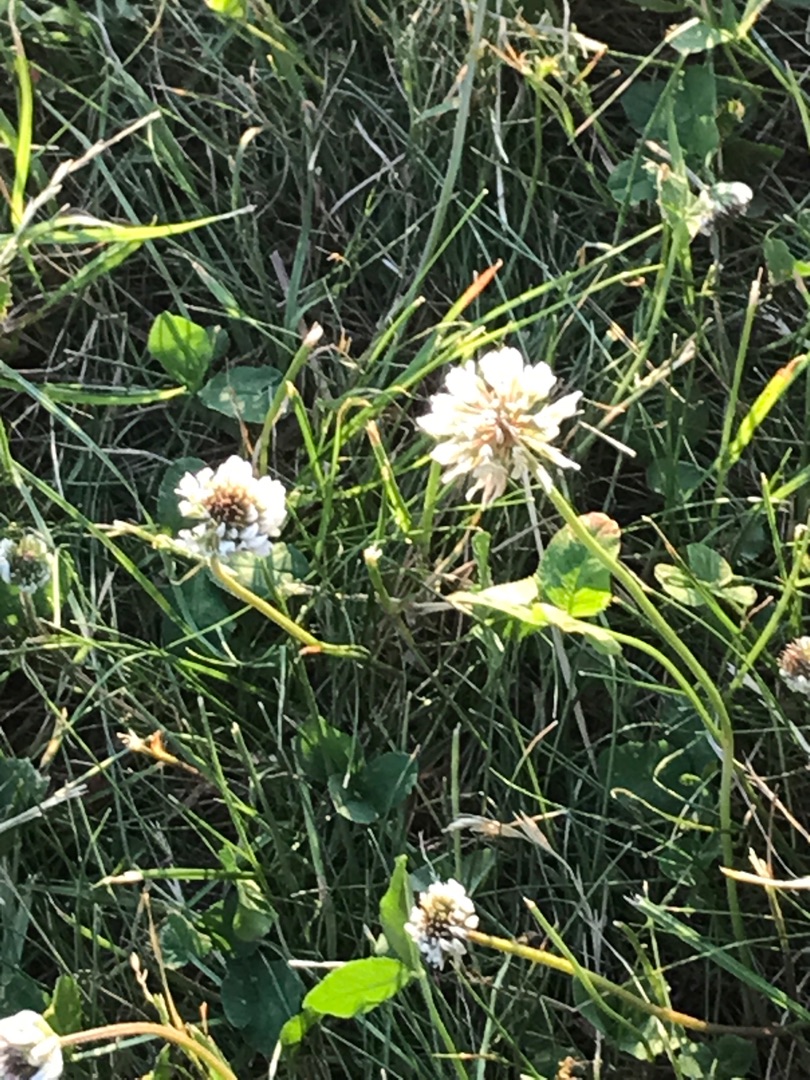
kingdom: Plantae
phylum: Tracheophyta
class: Magnoliopsida
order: Fabales
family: Fabaceae
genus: Trifolium
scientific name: Trifolium repens
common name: Hvid-kløver
